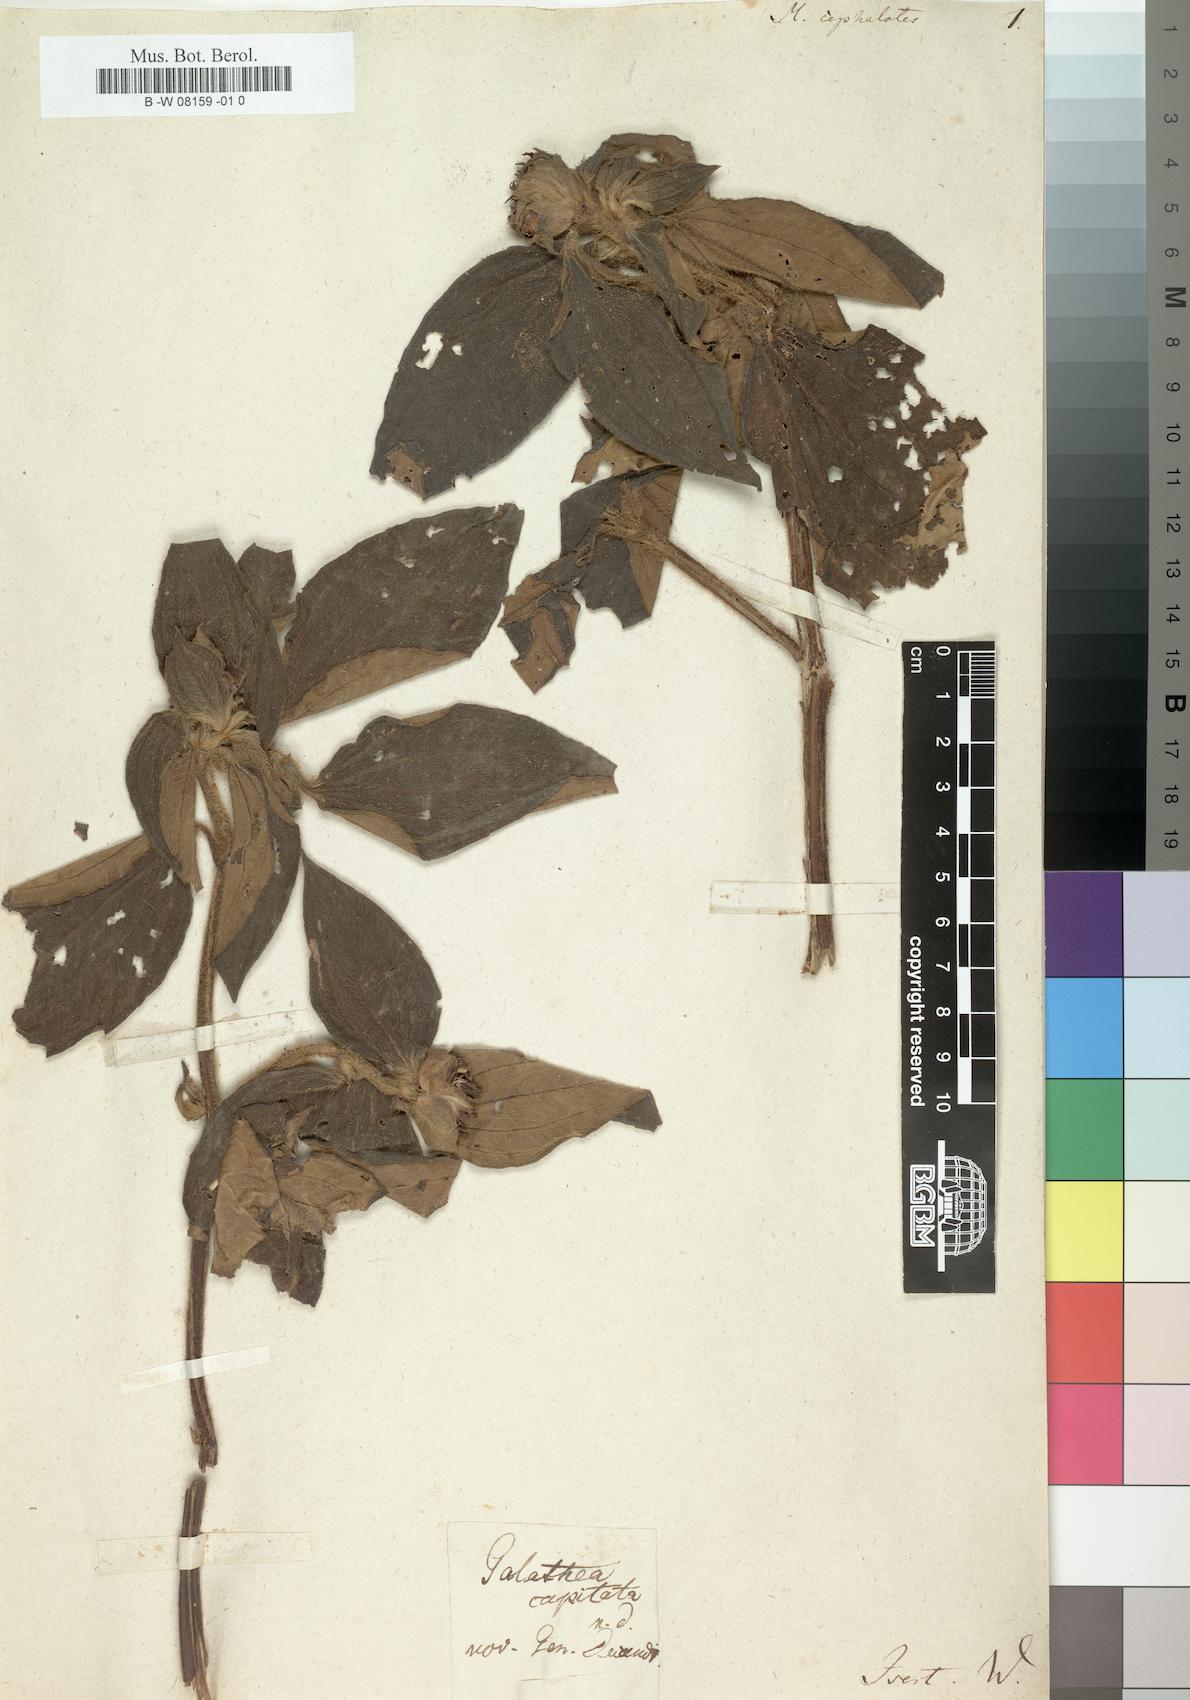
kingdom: Plantae
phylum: Tracheophyta
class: Magnoliopsida
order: Myrtales
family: Melastomataceae
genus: Meriania
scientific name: Meriania
